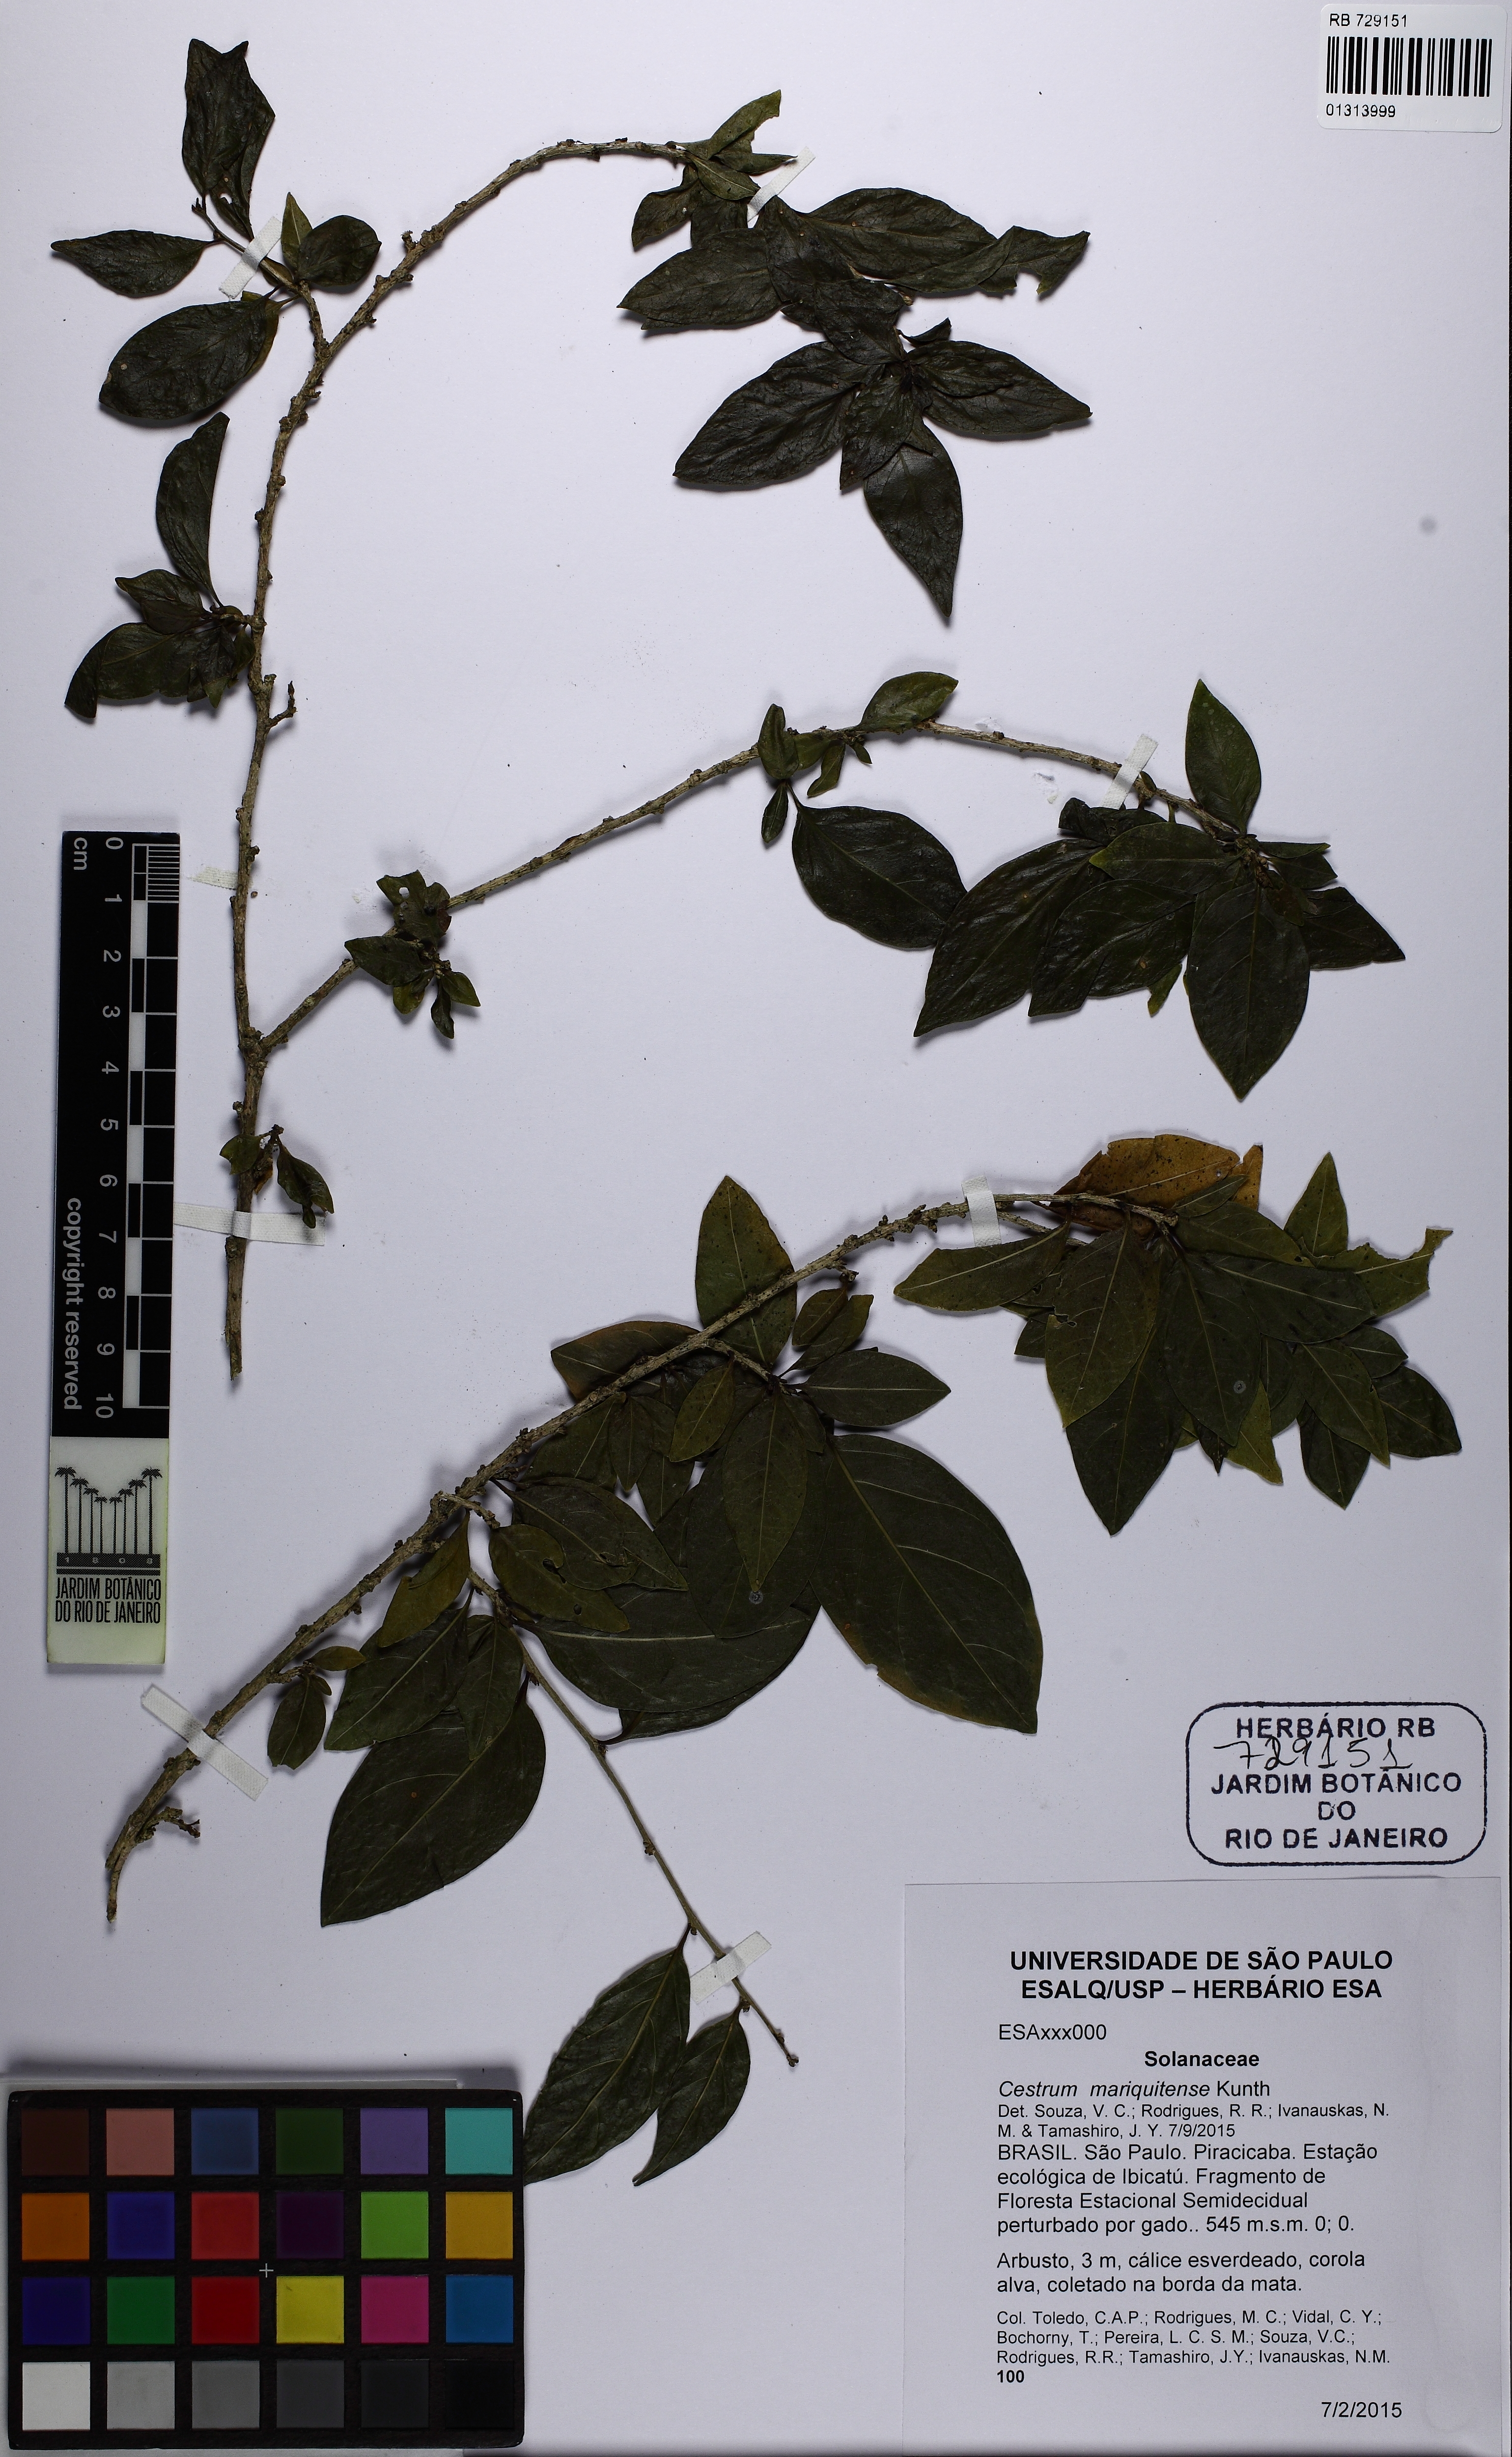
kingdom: Plantae
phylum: Tracheophyta
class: Magnoliopsida
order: Solanales
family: Solanaceae
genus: Cestrum
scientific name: Cestrum mariquitense
